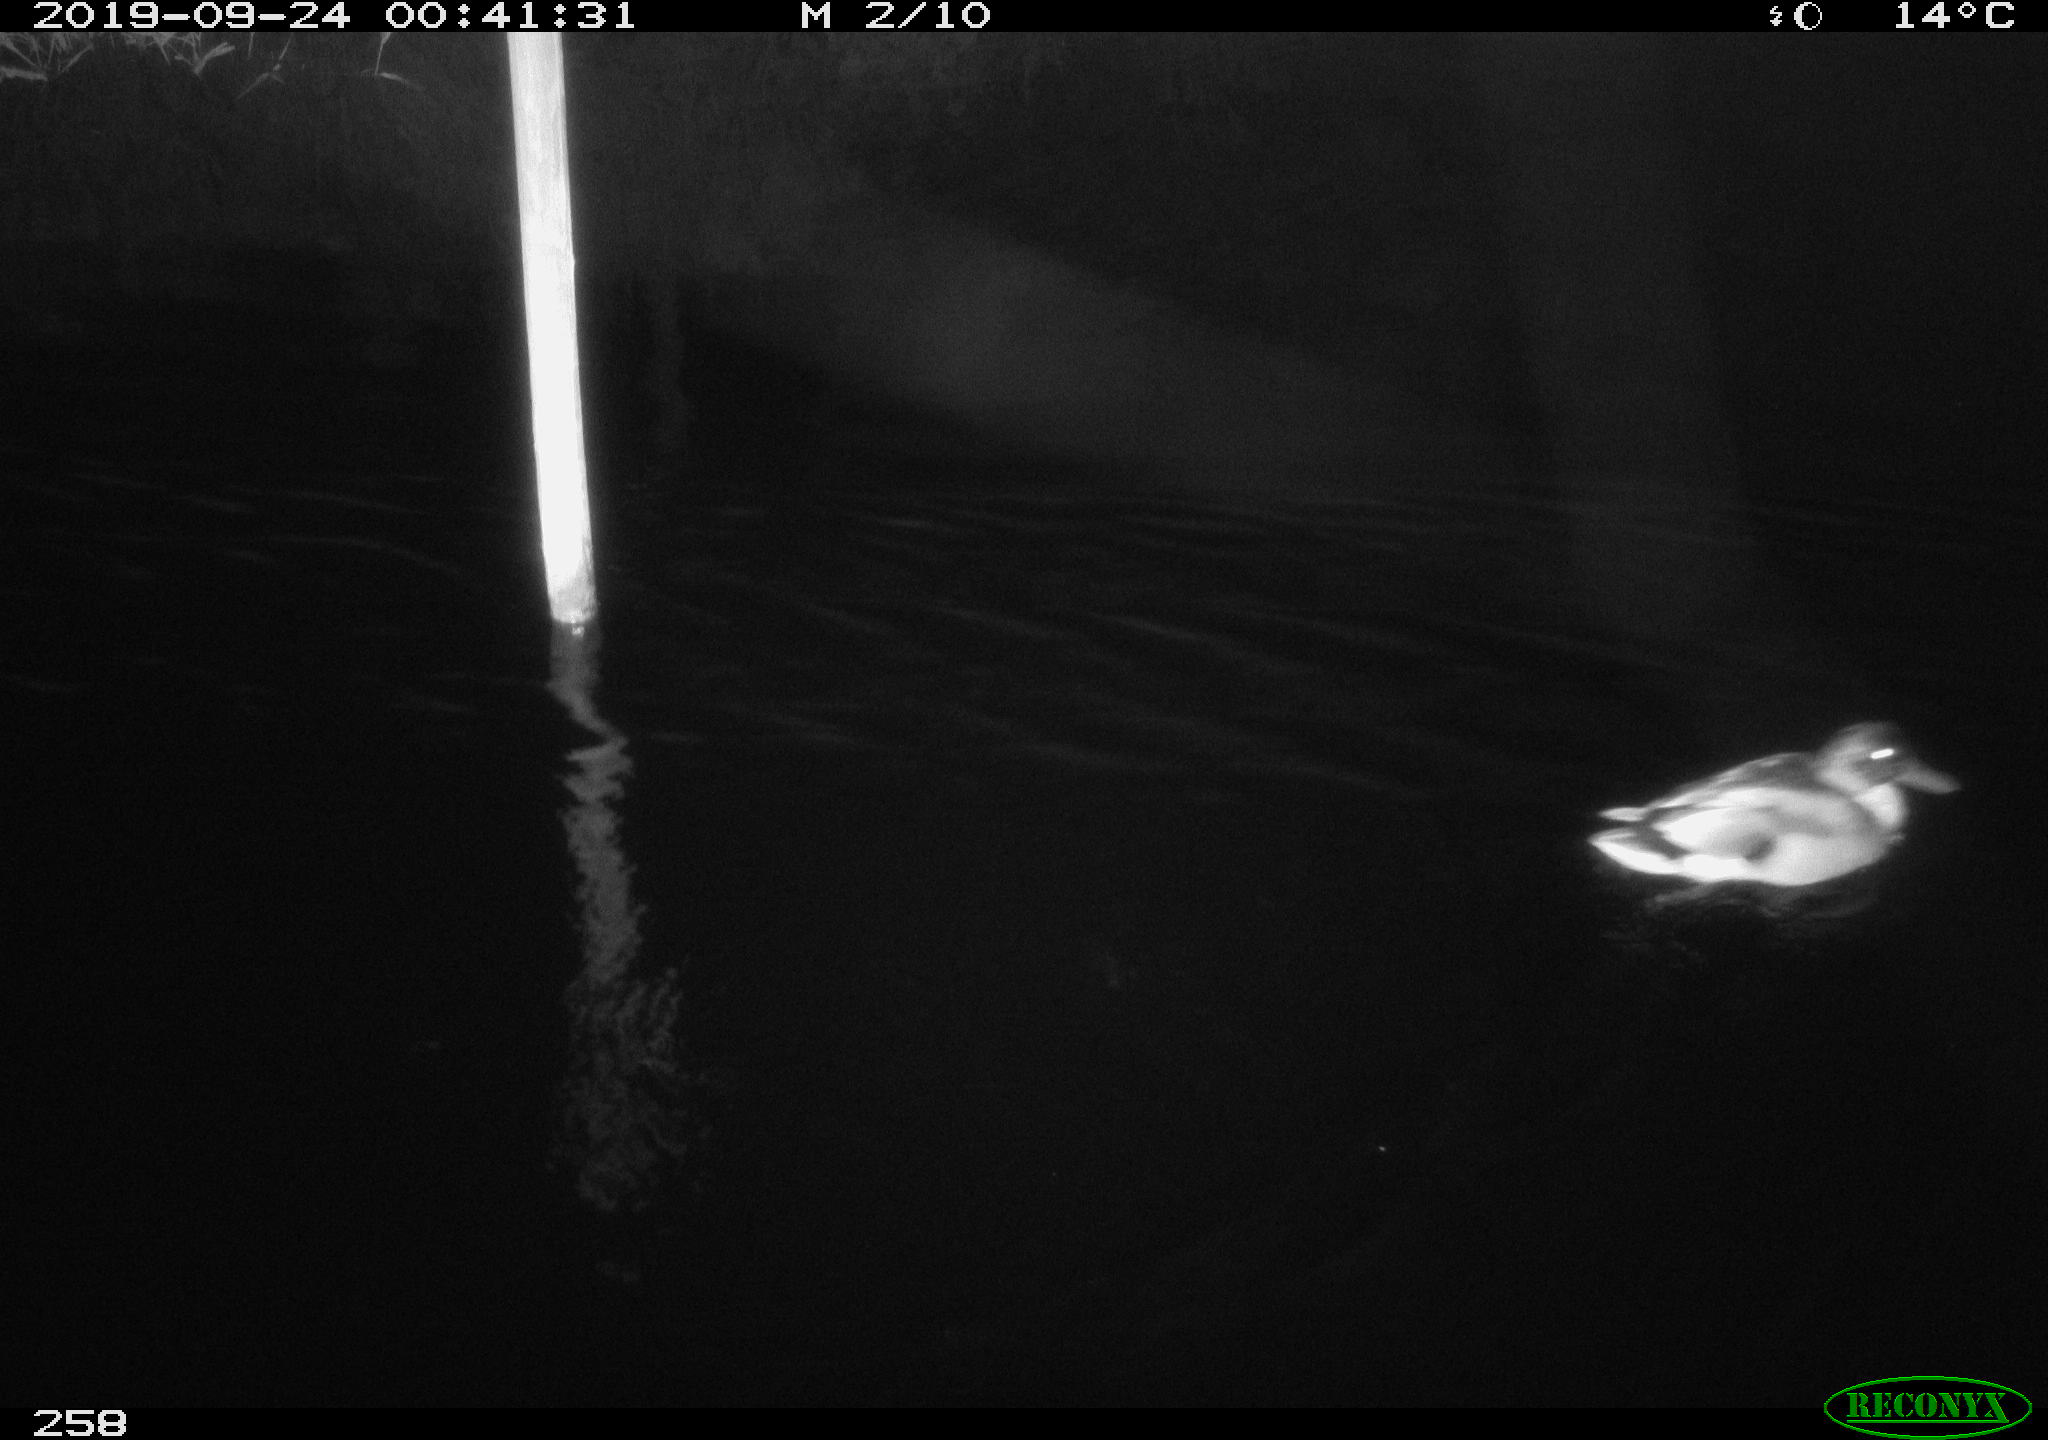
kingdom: Animalia
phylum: Chordata
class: Aves
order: Anseriformes
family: Anatidae
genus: Anas
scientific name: Anas platyrhynchos
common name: Mallard
